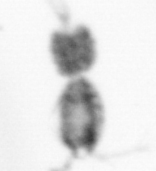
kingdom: Animalia
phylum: Arthropoda
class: Copepoda
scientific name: Copepoda
